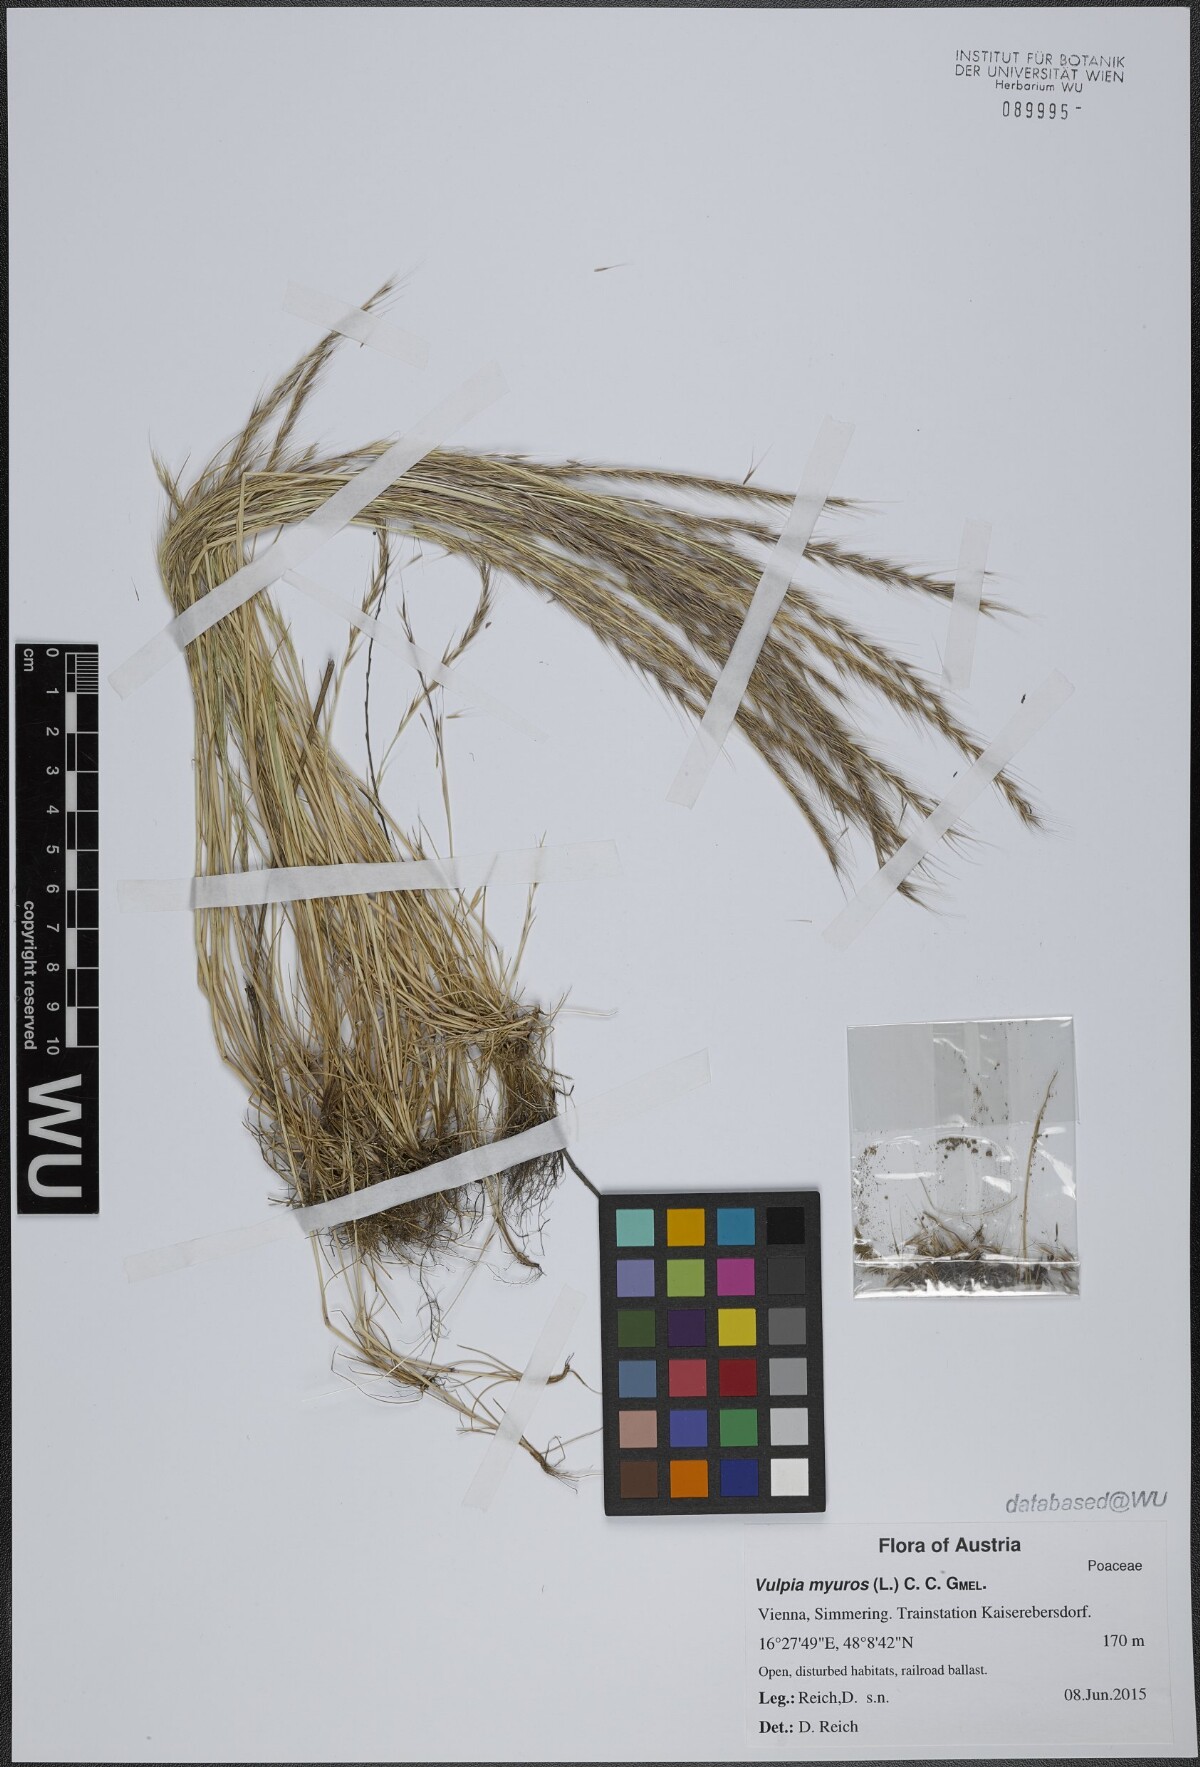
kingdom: Plantae
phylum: Tracheophyta
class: Liliopsida
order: Poales
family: Poaceae
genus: Festuca
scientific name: Festuca myuros
